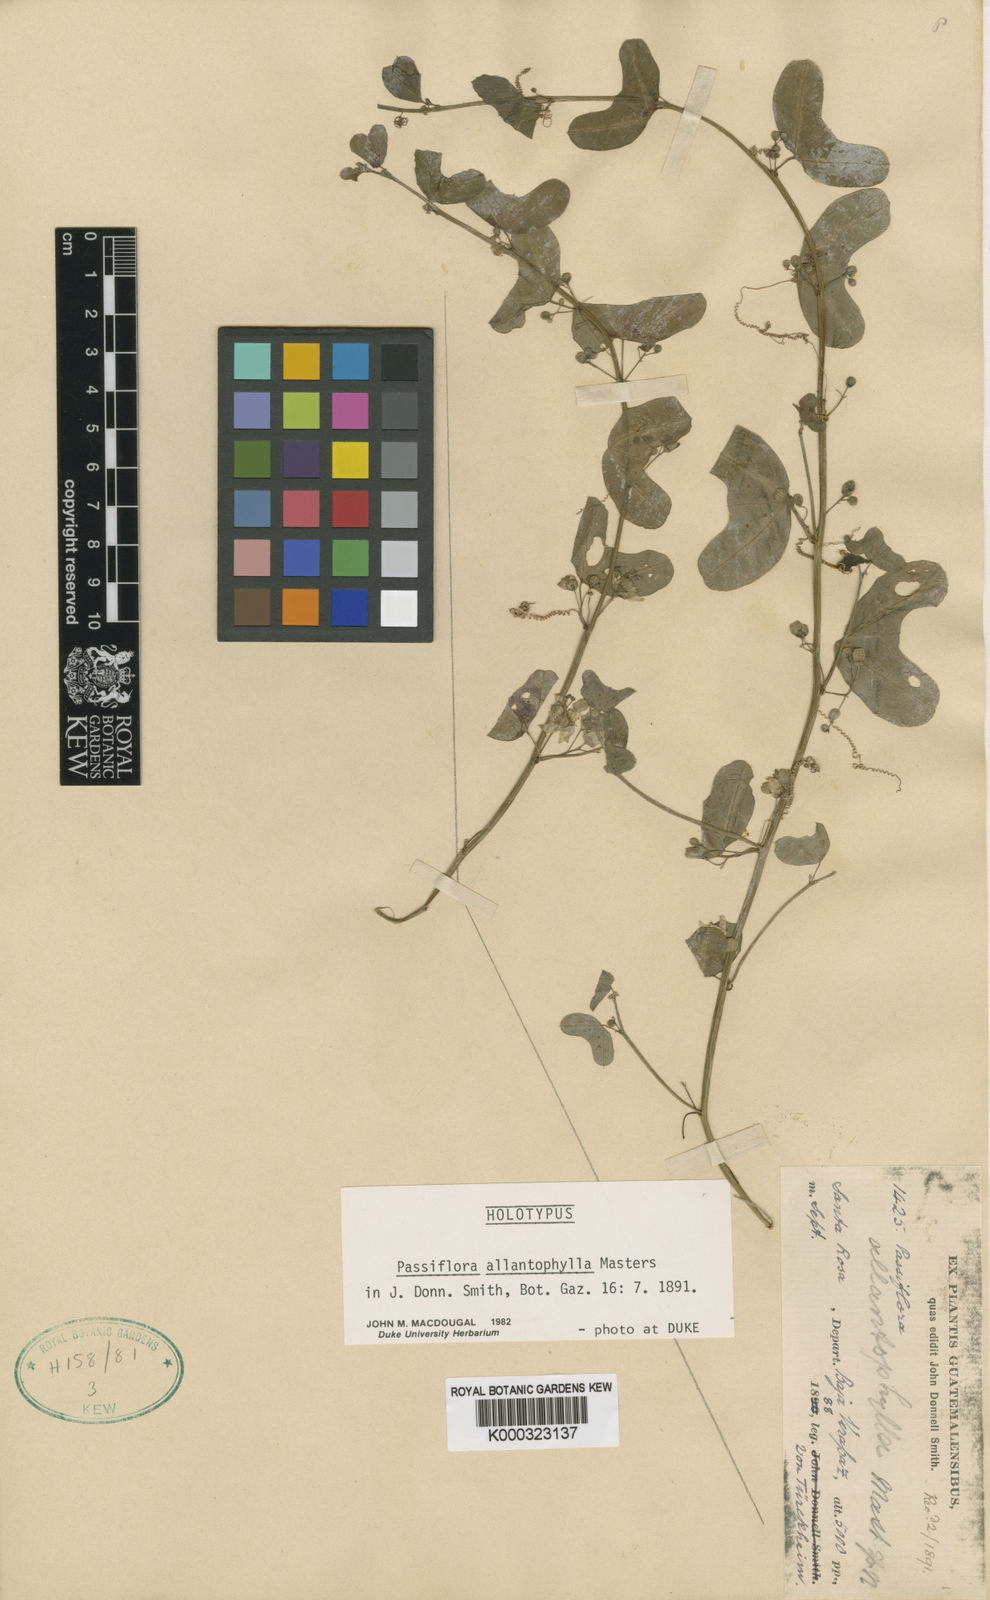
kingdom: Plantae
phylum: Tracheophyta
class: Magnoliopsida
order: Malpighiales
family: Passifloraceae
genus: Passiflora
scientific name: Passiflora
